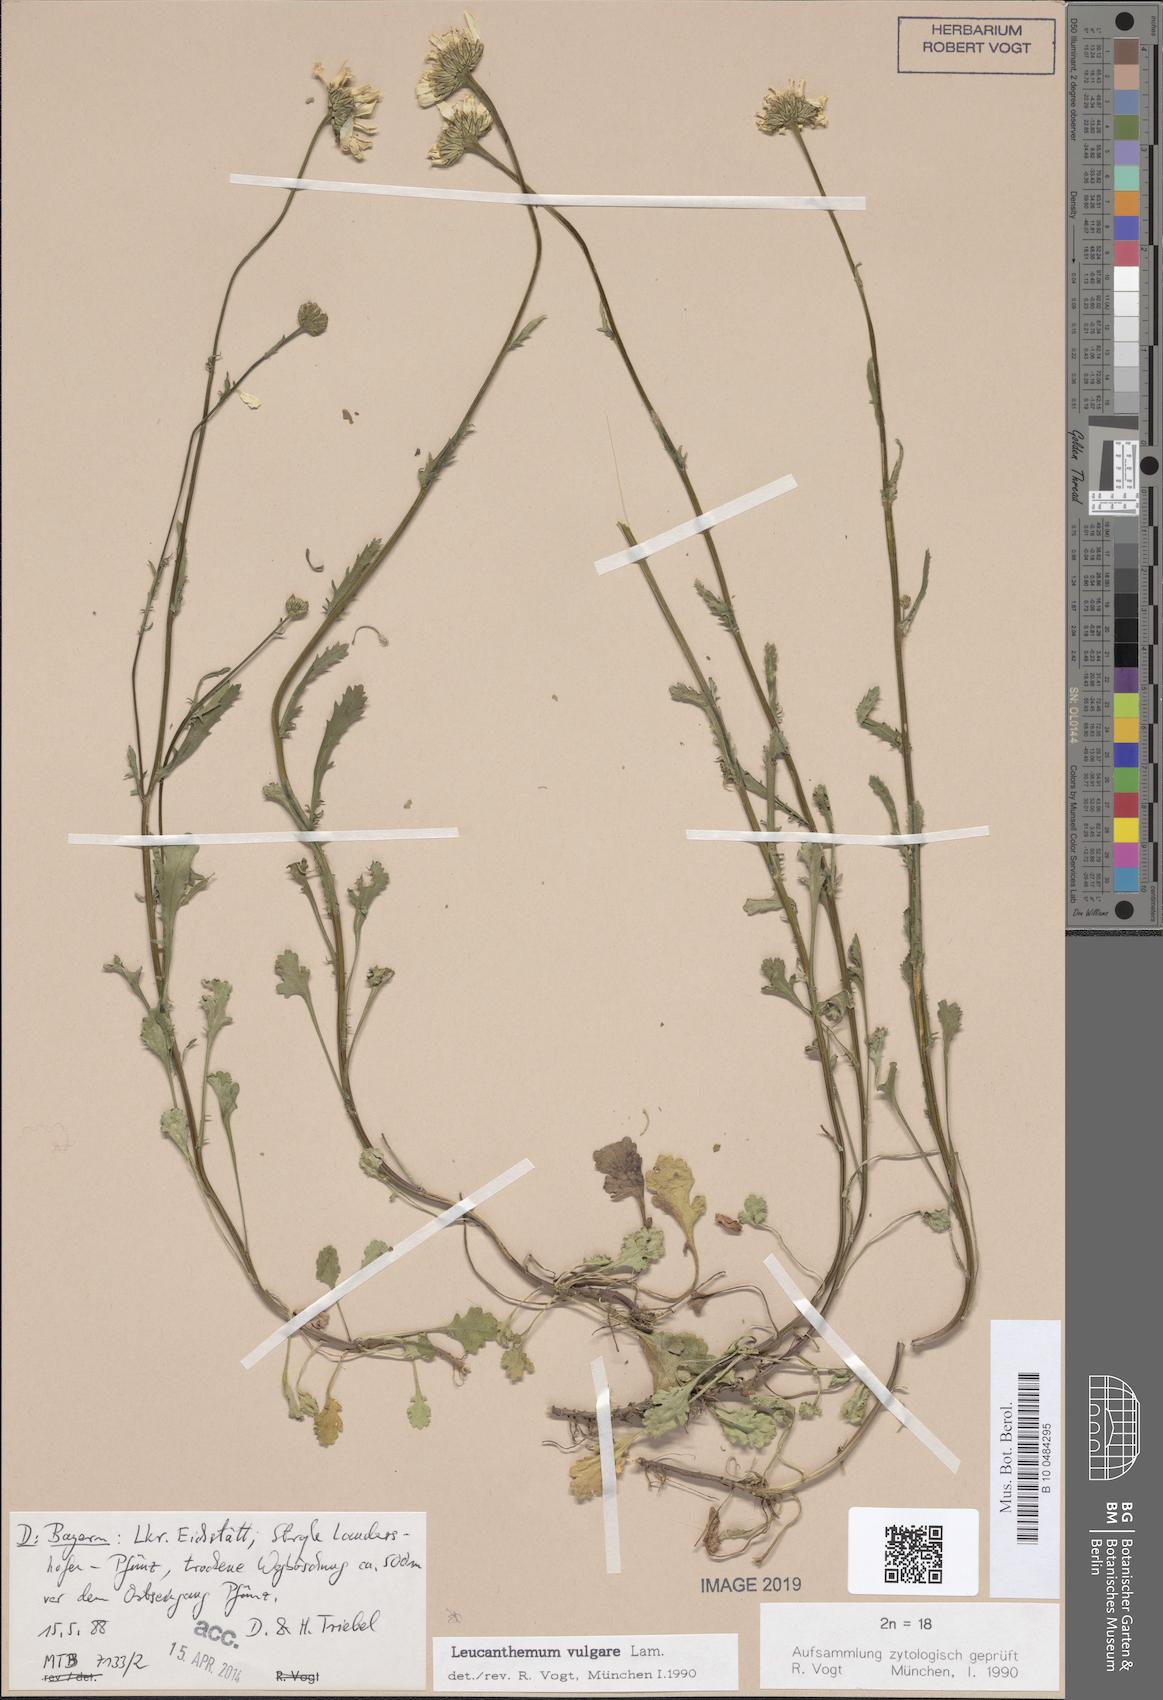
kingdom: Plantae
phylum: Tracheophyta
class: Magnoliopsida
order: Asterales
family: Asteraceae
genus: Leucanthemum
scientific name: Leucanthemum vulgare
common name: Oxeye daisy
